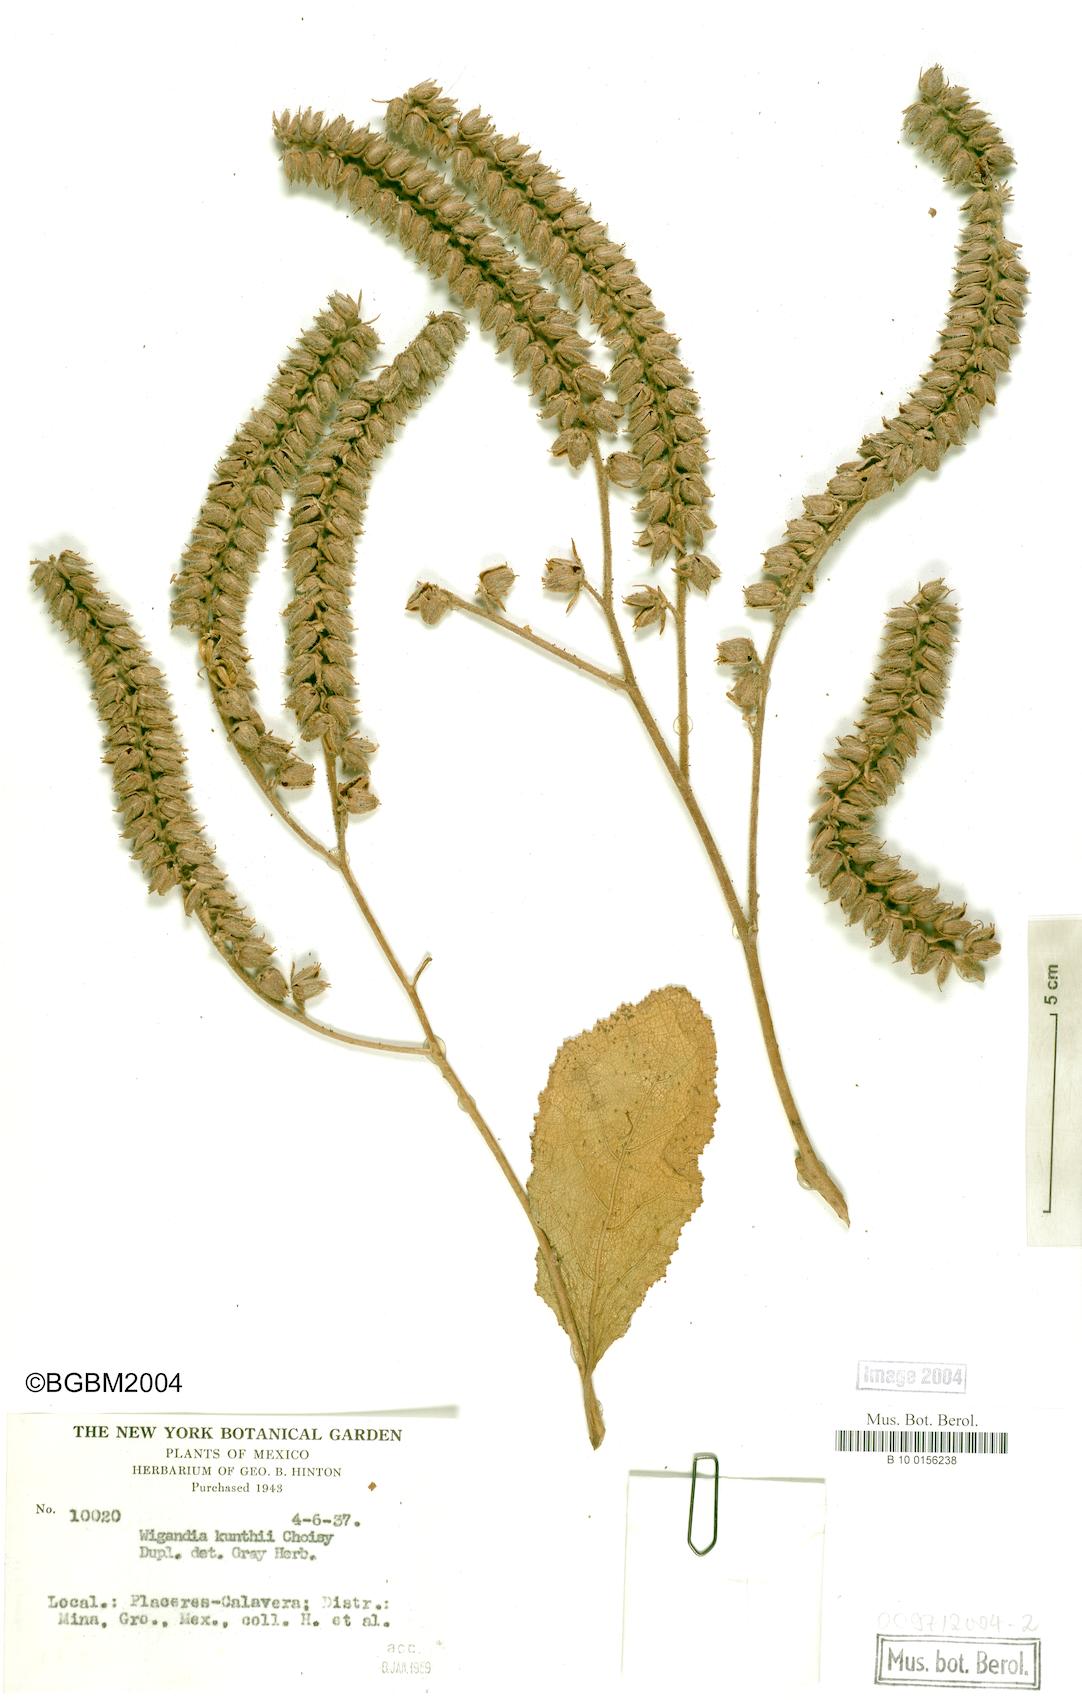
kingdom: Plantae
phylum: Tracheophyta
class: Magnoliopsida
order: Boraginales
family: Namaceae
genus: Wigandia
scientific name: Wigandia urens
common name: Caracus wigandia
